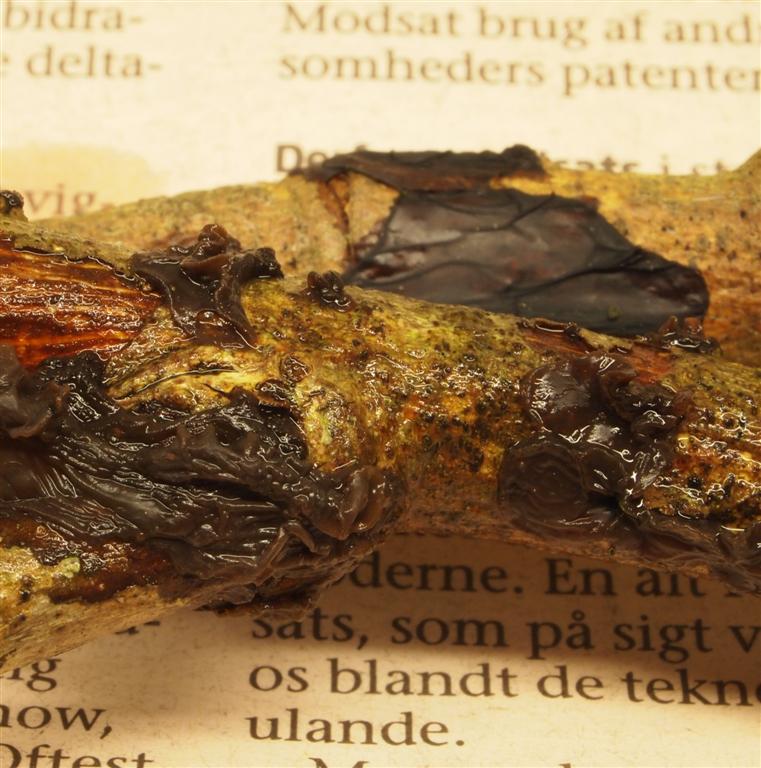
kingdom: Fungi
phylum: Basidiomycota
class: Agaricomycetes
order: Auriculariales
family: Auriculariaceae
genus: Exidia
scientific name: Exidia recisa
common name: pile-bævretop
